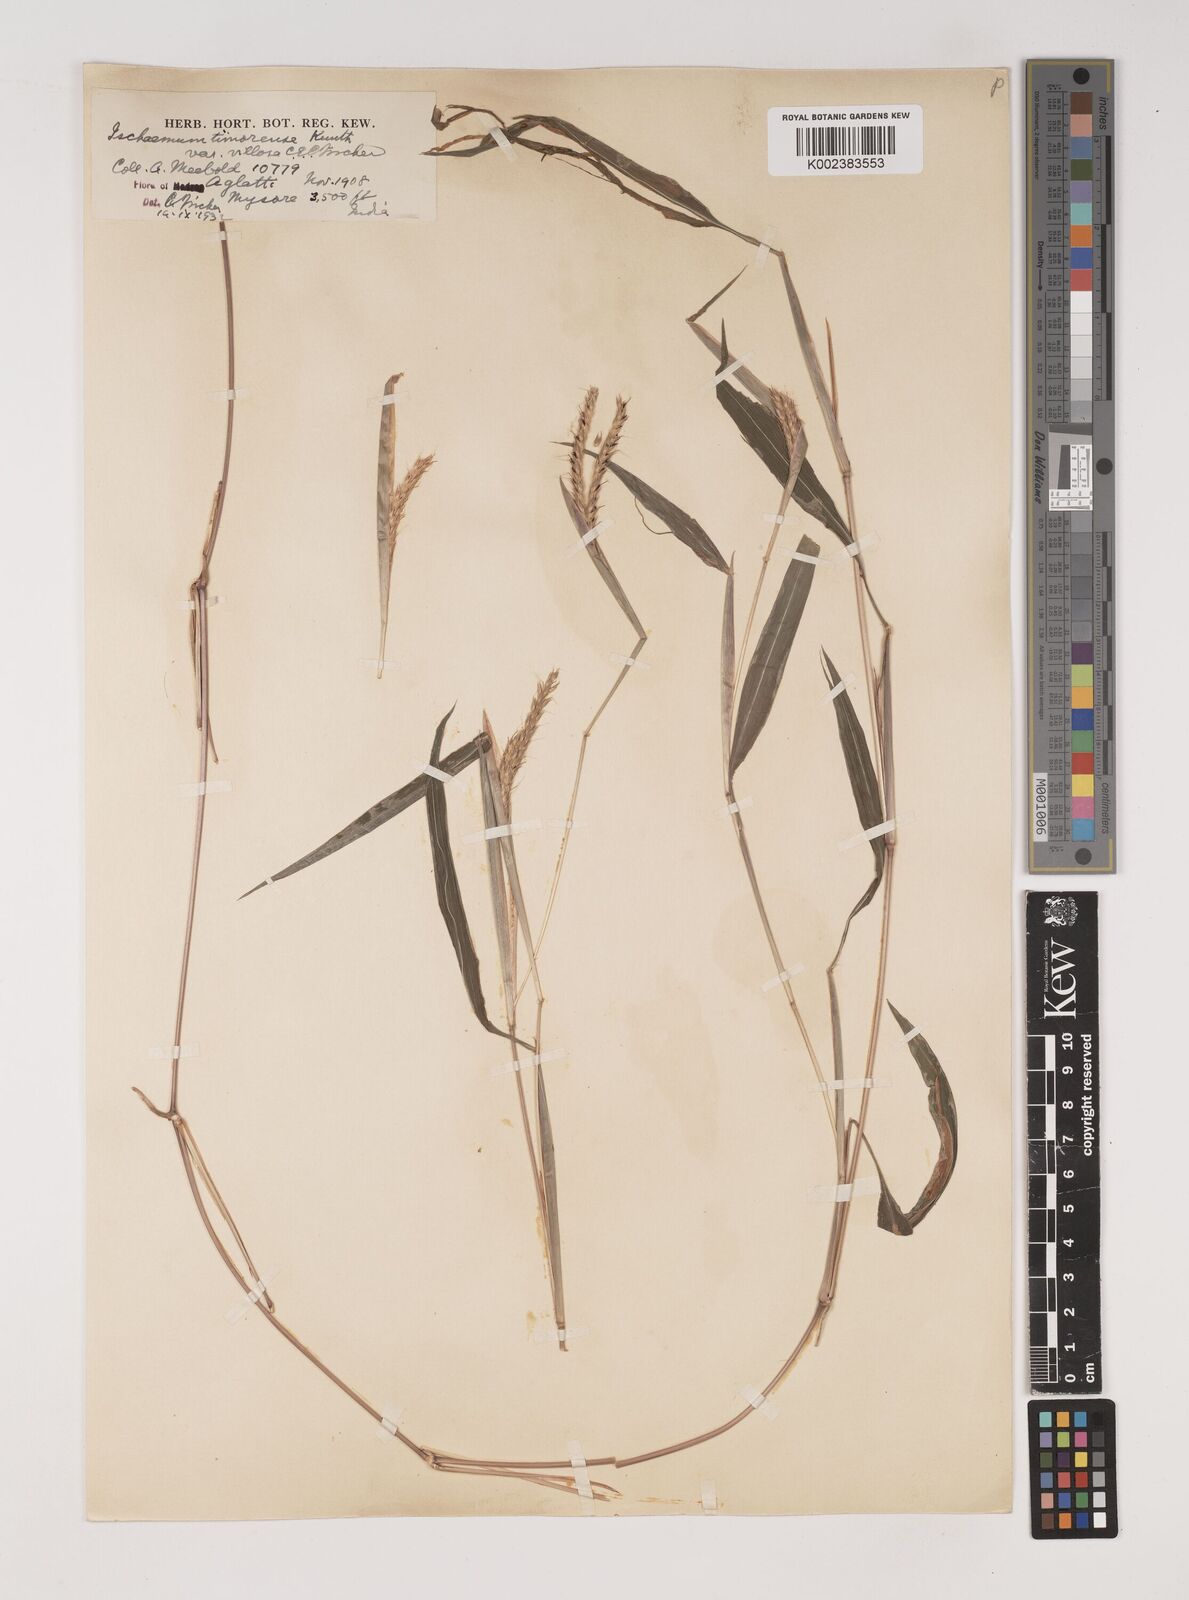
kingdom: Plantae
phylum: Tracheophyta
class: Liliopsida
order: Poales
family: Poaceae
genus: Ischaemum
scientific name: Ischaemum timorense
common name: Stalkleaf murainagrass
